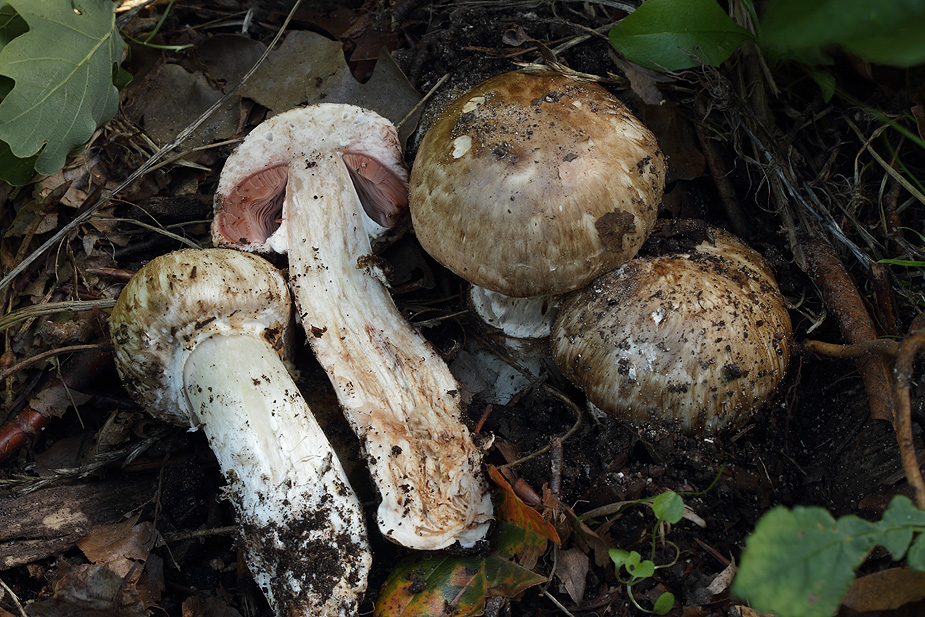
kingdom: Fungi
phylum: Basidiomycota
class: Agaricomycetes
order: Agaricales
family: Agaricaceae
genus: Agaricus
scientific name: Agaricus subperonatus
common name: knippe-champignon
